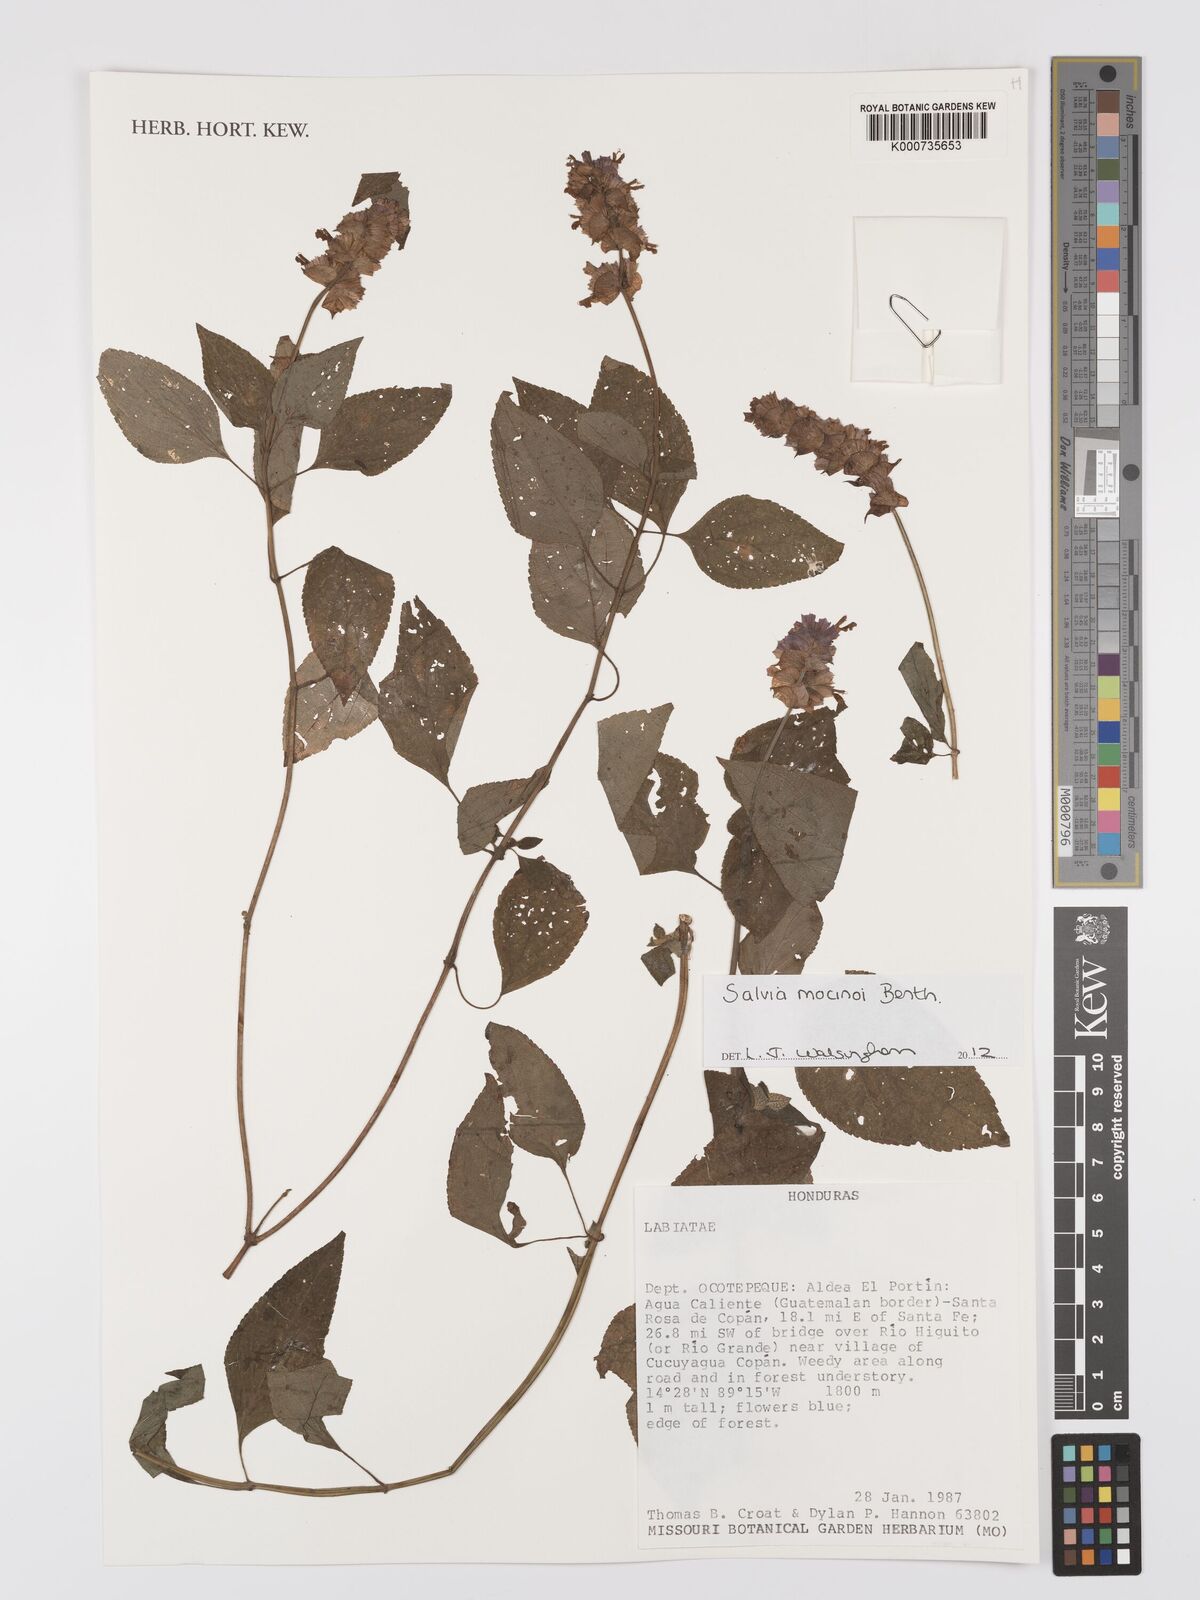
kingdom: Plantae
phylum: Tracheophyta
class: Magnoliopsida
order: Lamiales
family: Lamiaceae
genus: Salvia
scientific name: Salvia mocinoi
